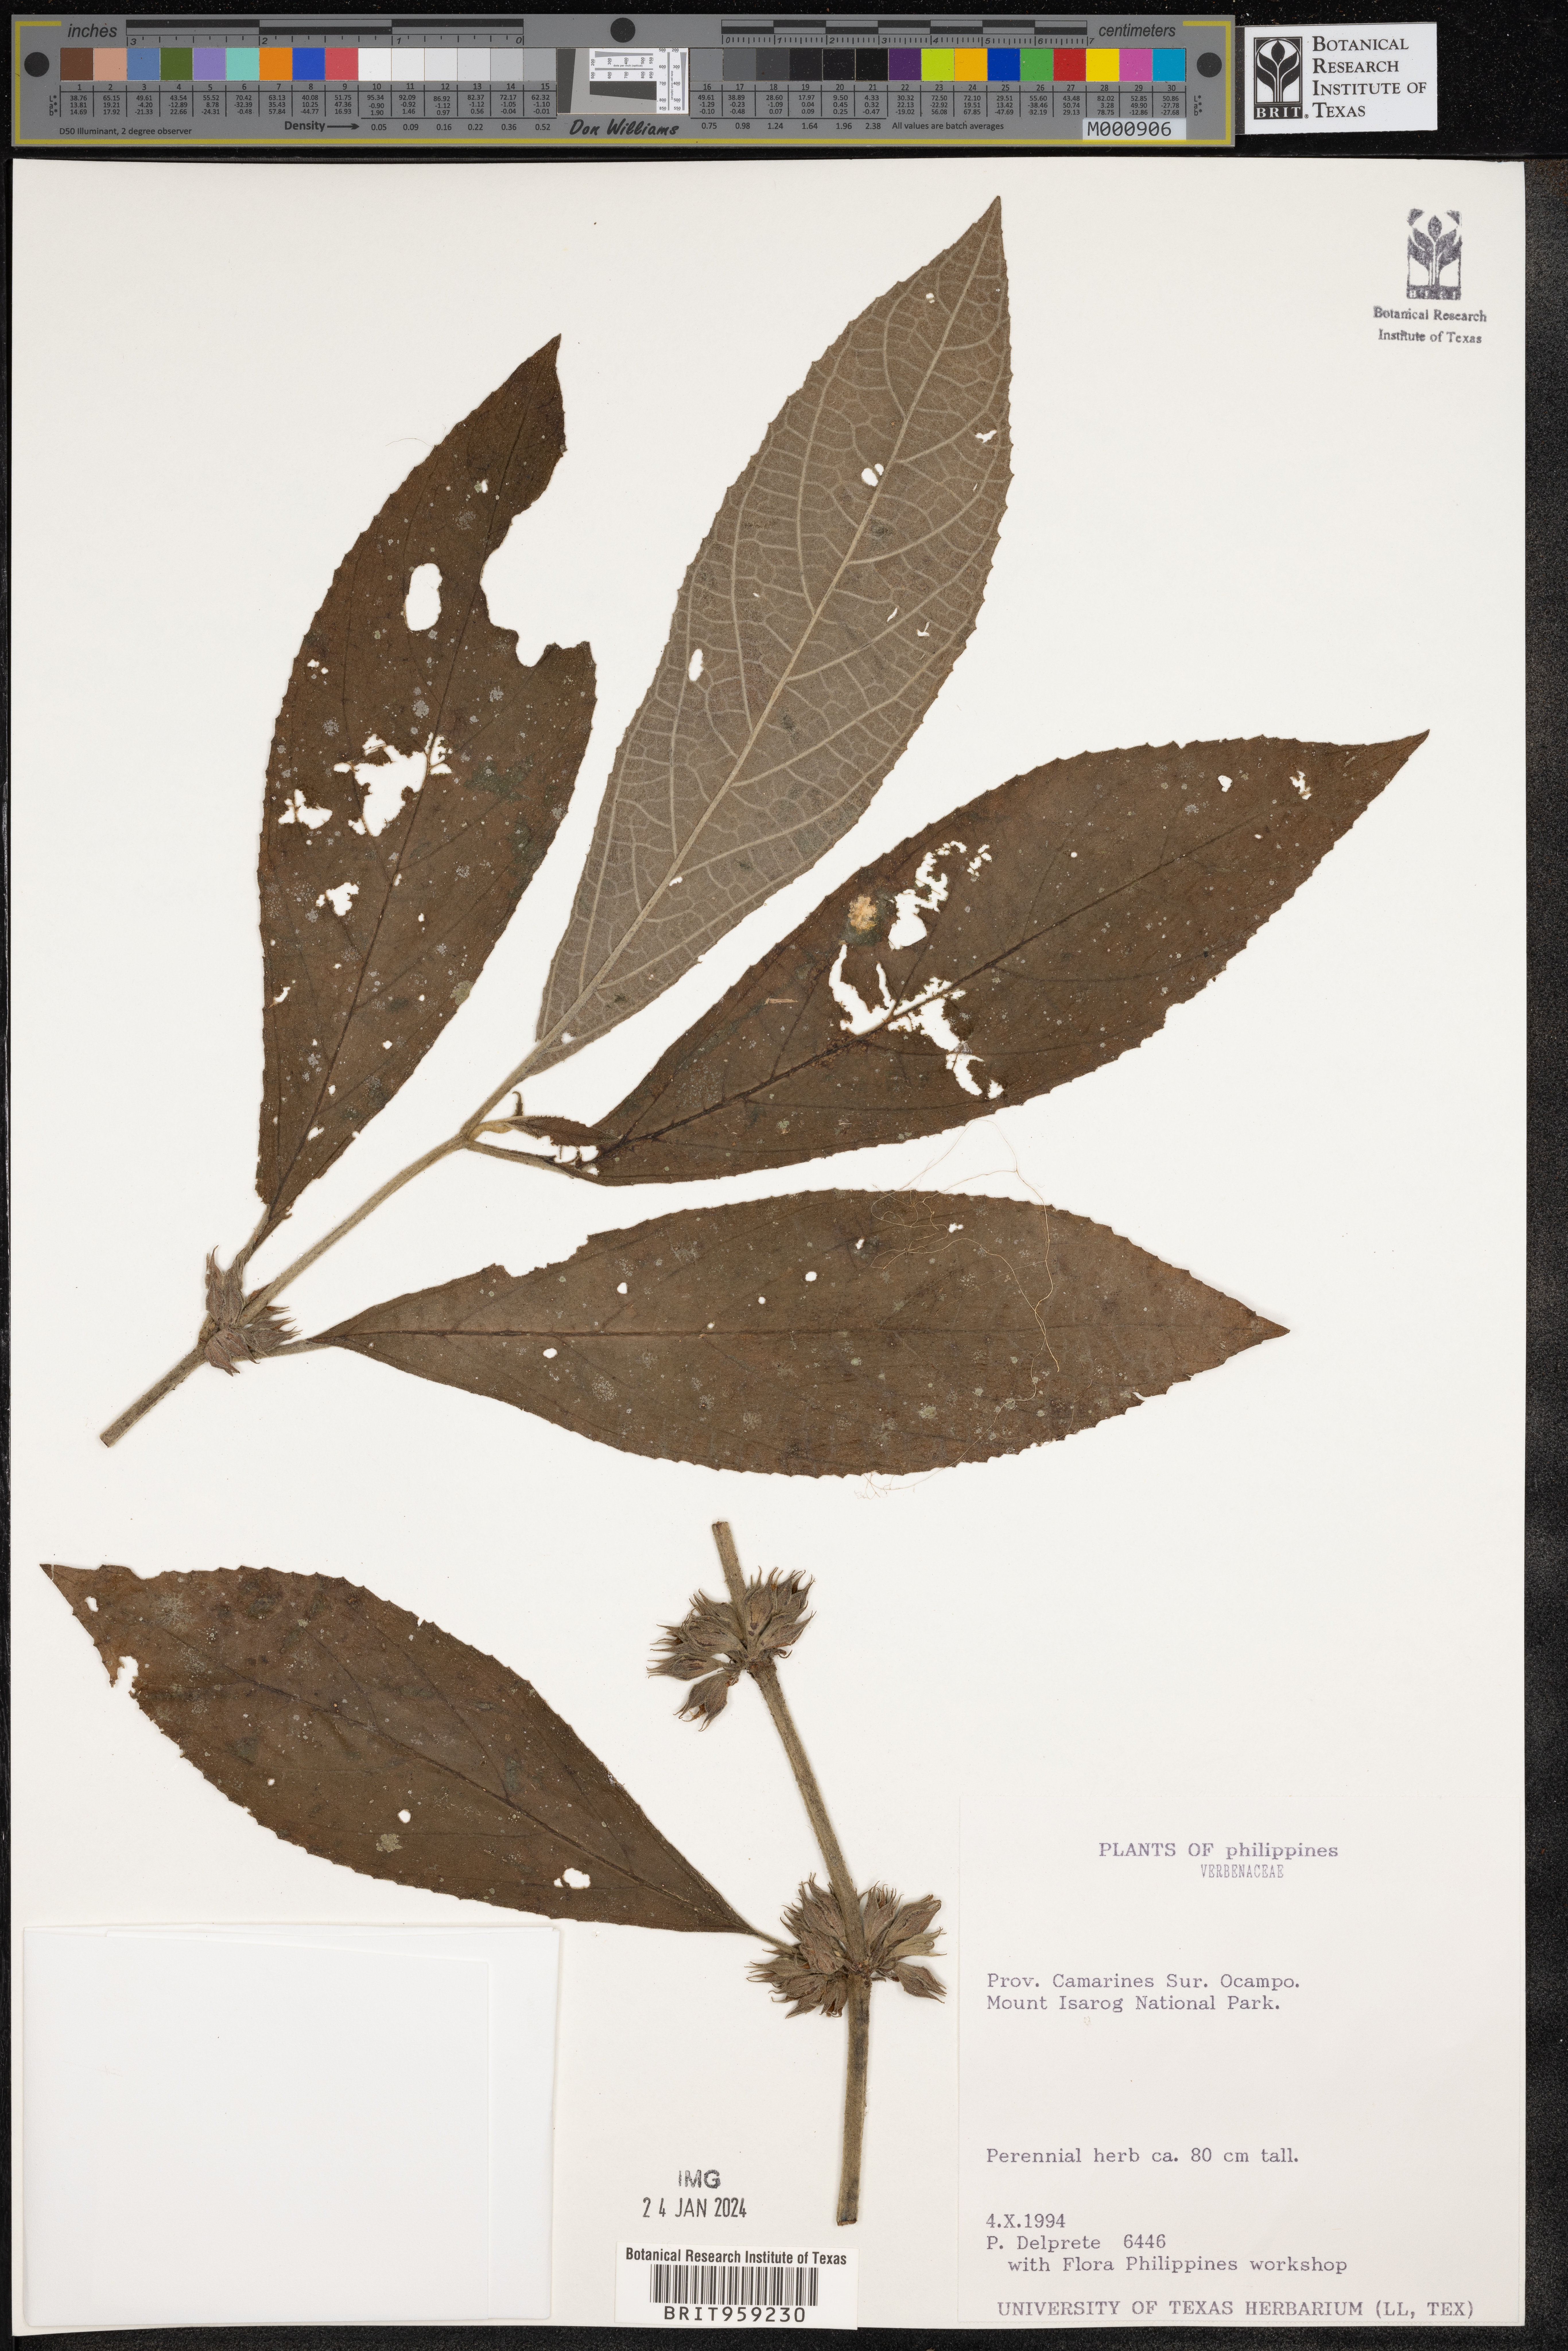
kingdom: Plantae
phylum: Tracheophyta
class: Magnoliopsida
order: Lamiales
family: Verbenaceae
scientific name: Verbenaceae
